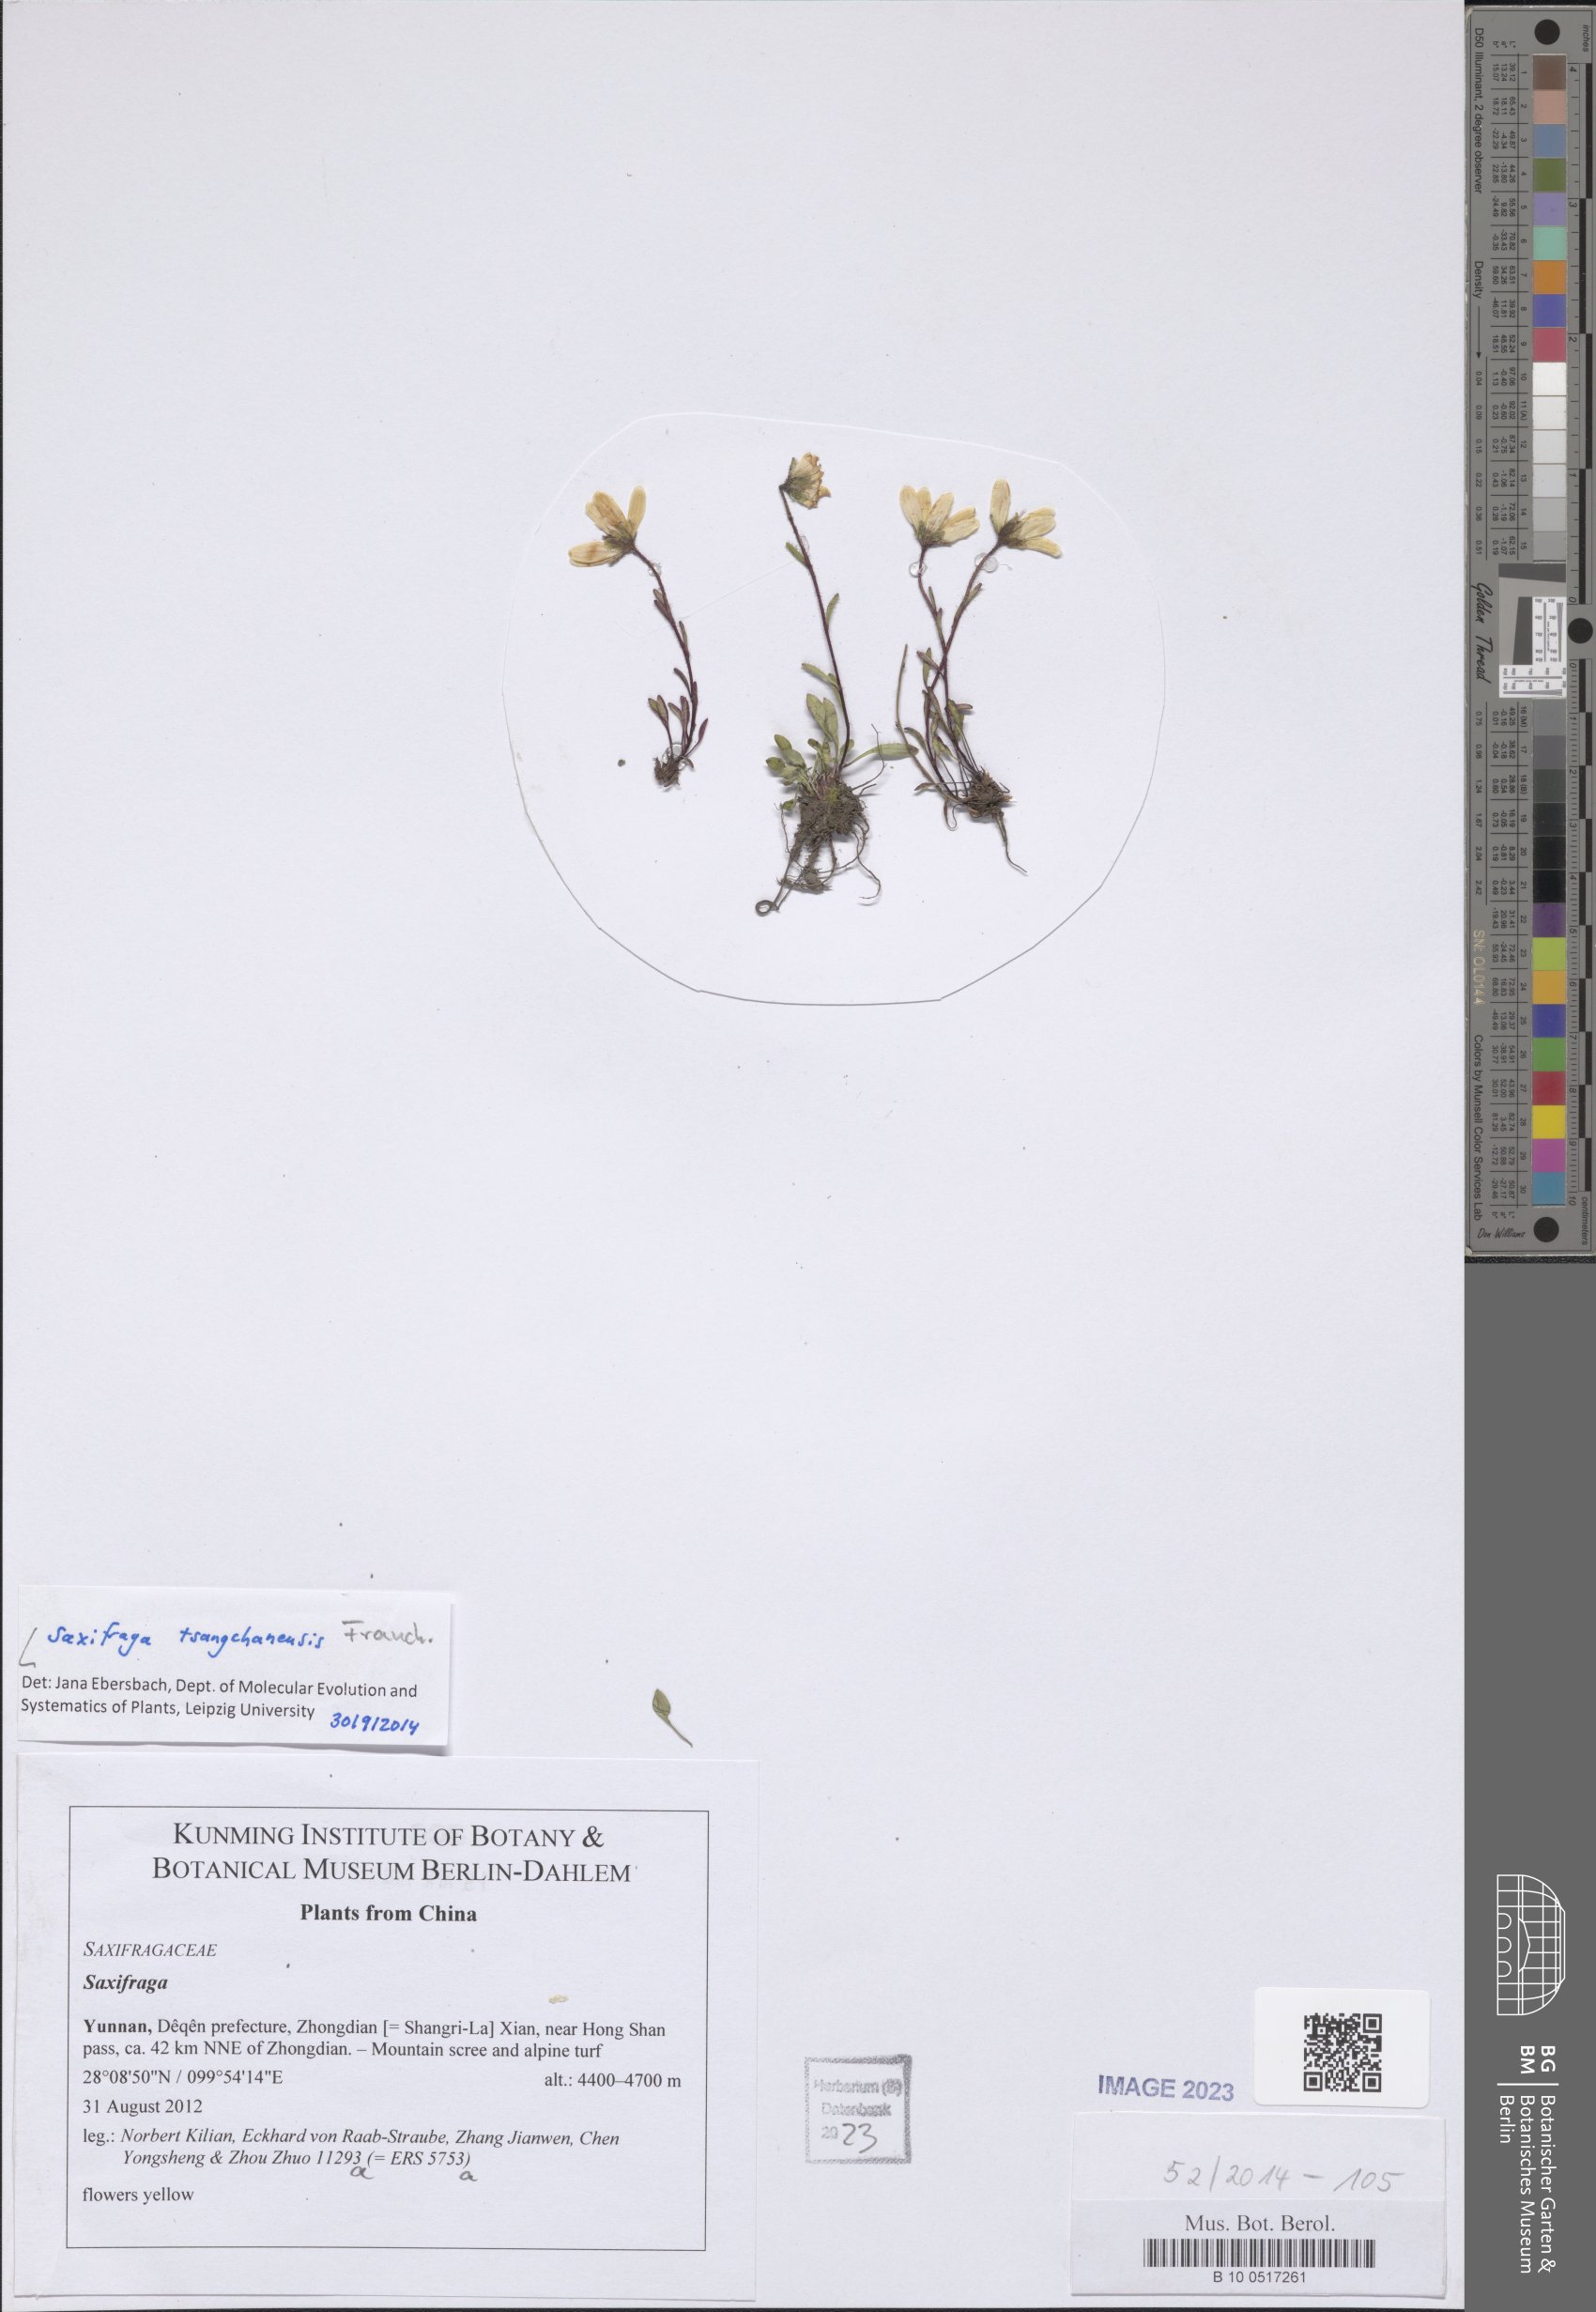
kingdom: Plantae
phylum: Tracheophyta
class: Magnoliopsida
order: Saxifragales
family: Saxifragaceae
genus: Saxifraga
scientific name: Saxifraga tsangchanensis
